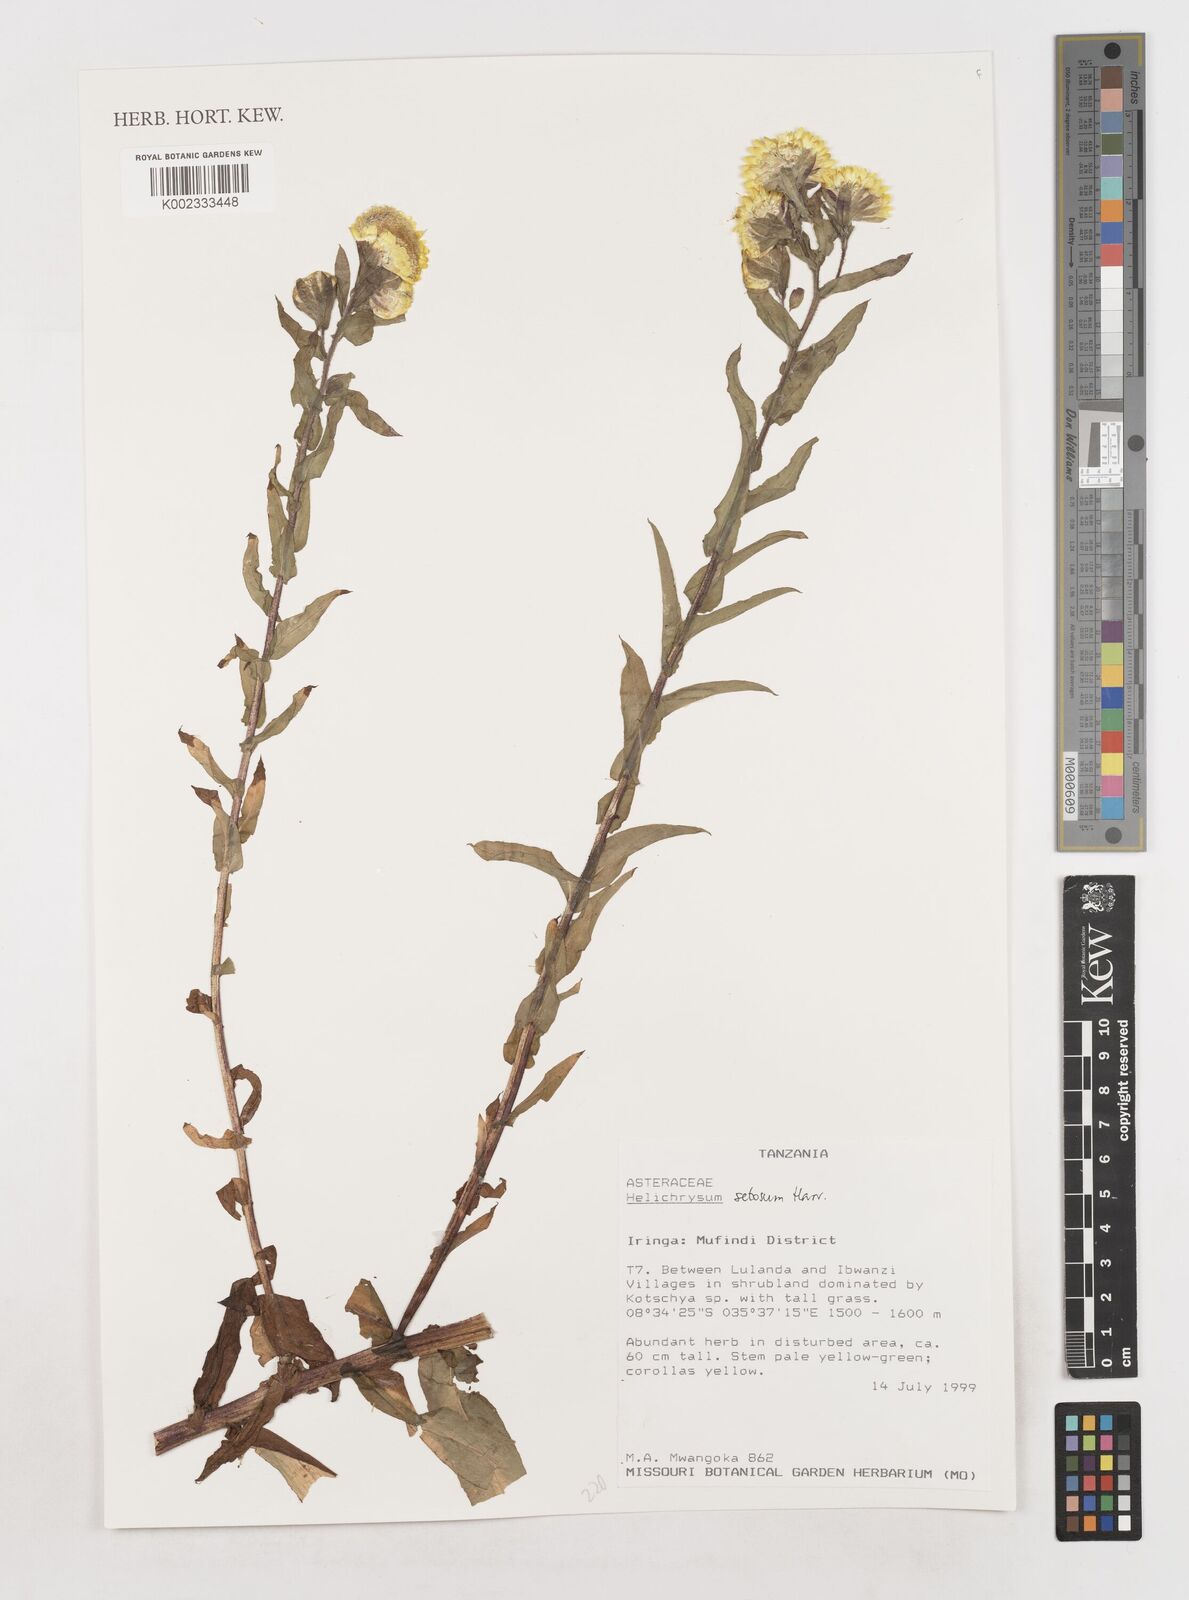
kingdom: Plantae
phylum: Tracheophyta
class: Magnoliopsida
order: Asterales
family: Asteraceae
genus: Helichrysum
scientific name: Helichrysum setosum
